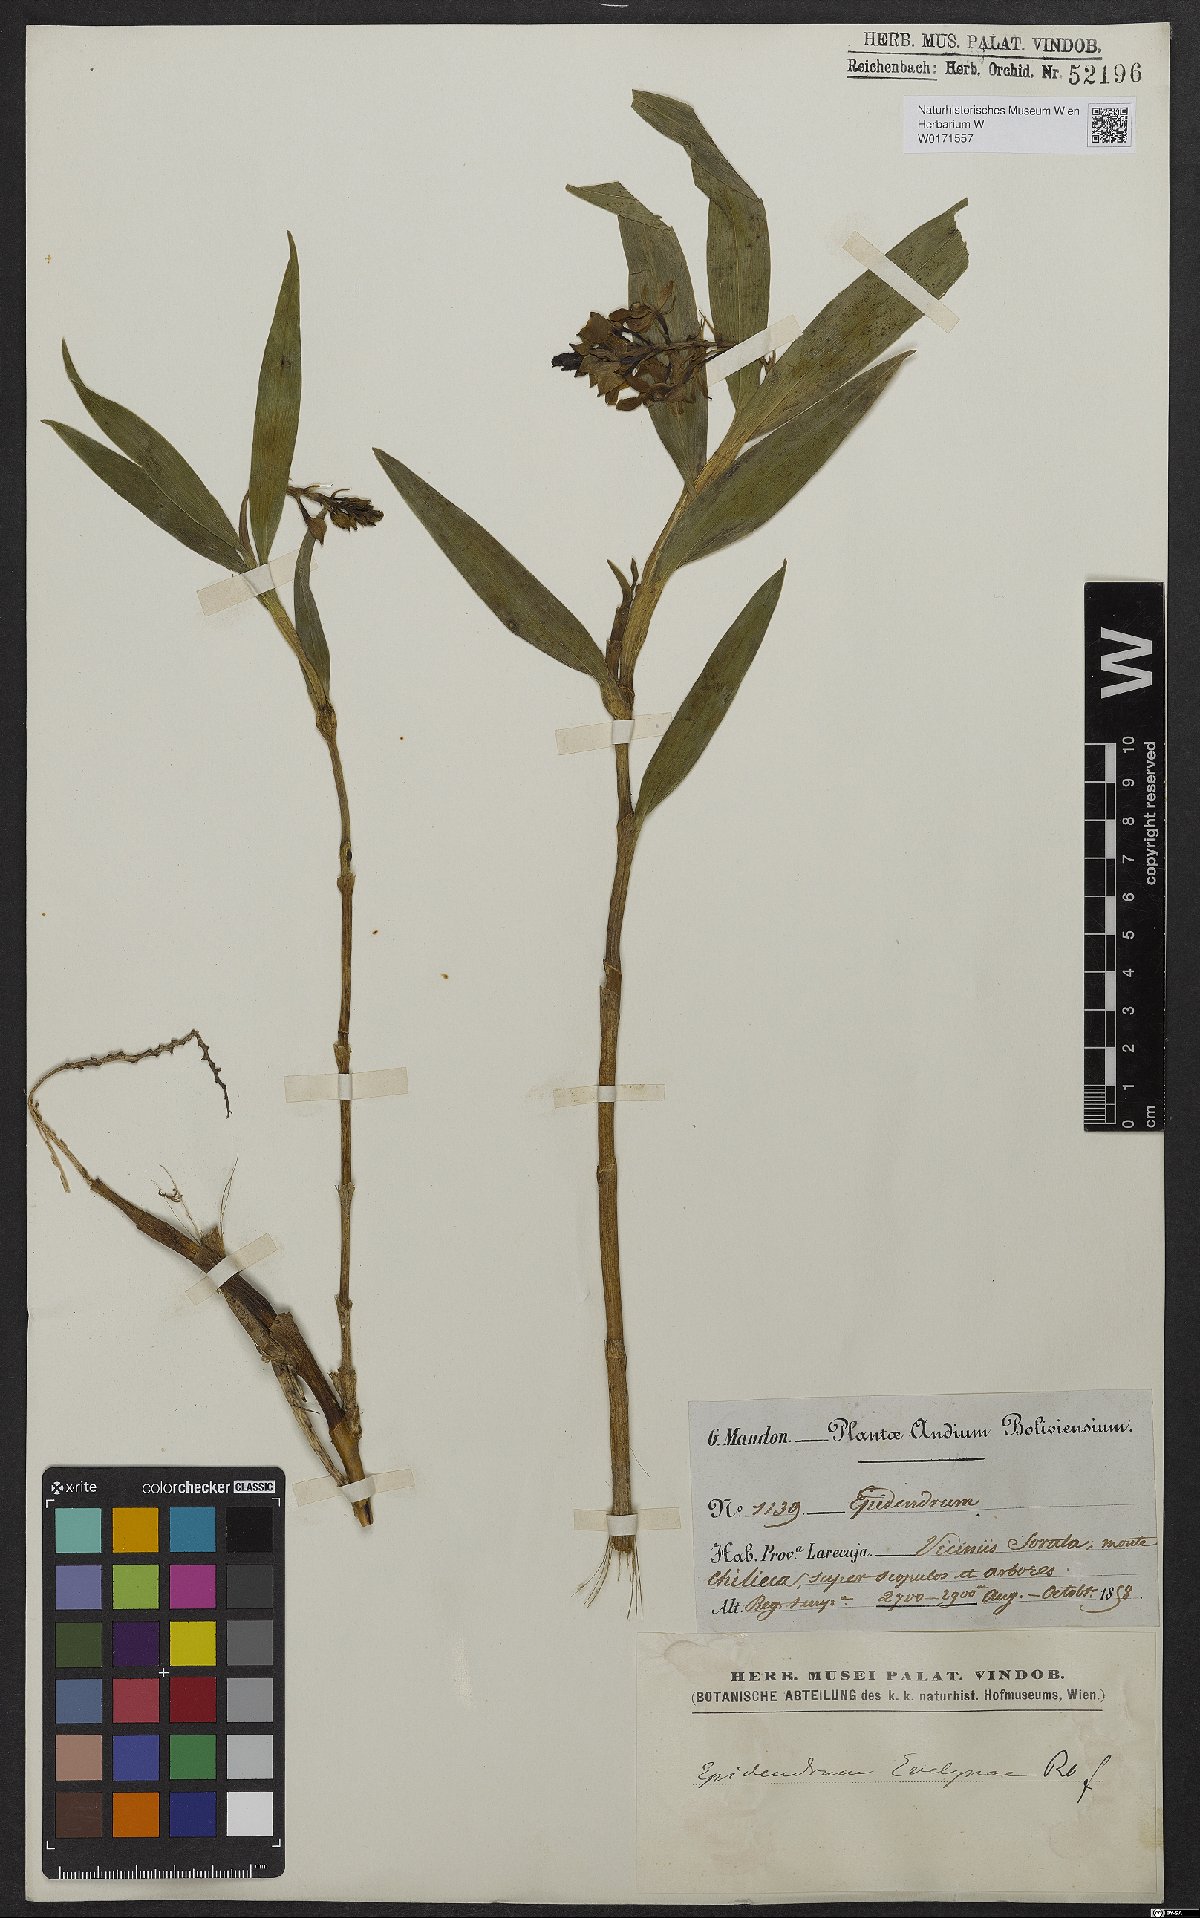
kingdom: Plantae
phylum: Tracheophyta
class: Liliopsida
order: Asparagales
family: Orchidaceae
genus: Epidendrum
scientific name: Epidendrum evelynae
